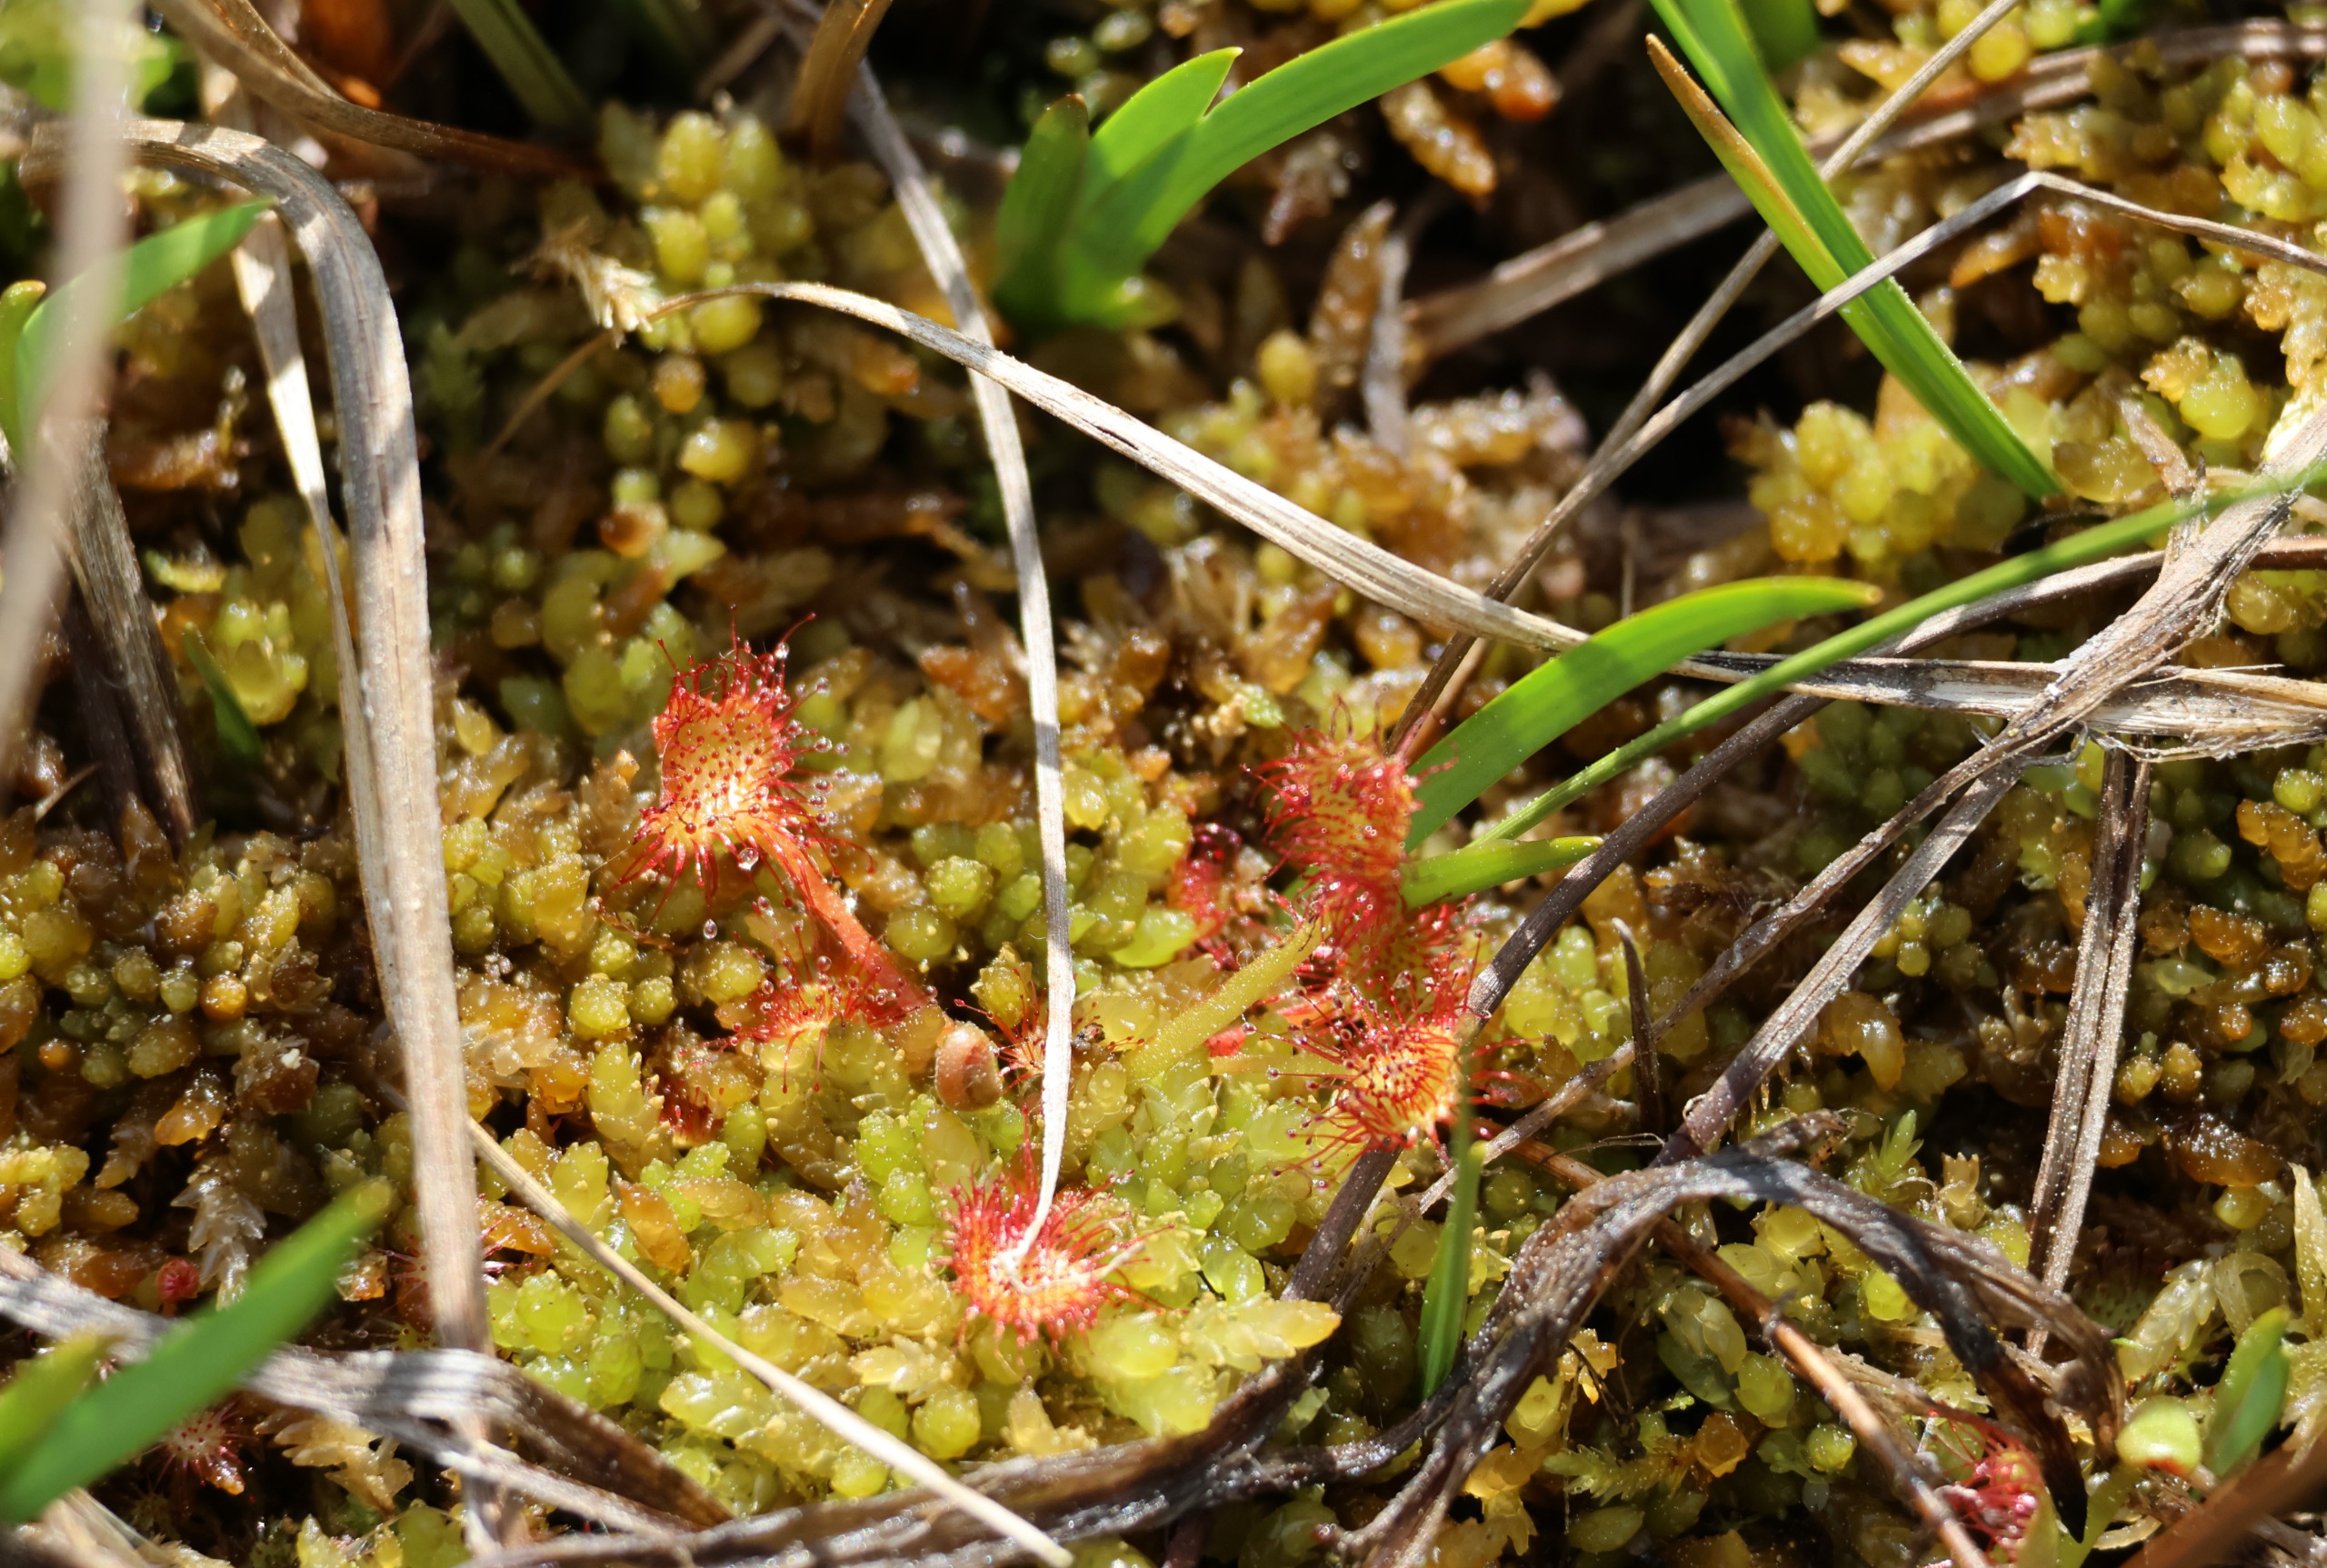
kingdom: Plantae
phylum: Tracheophyta
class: Magnoliopsida
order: Caryophyllales
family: Droseraceae
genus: Drosera
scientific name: Drosera rotundifolia
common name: Rundbladet soldug
